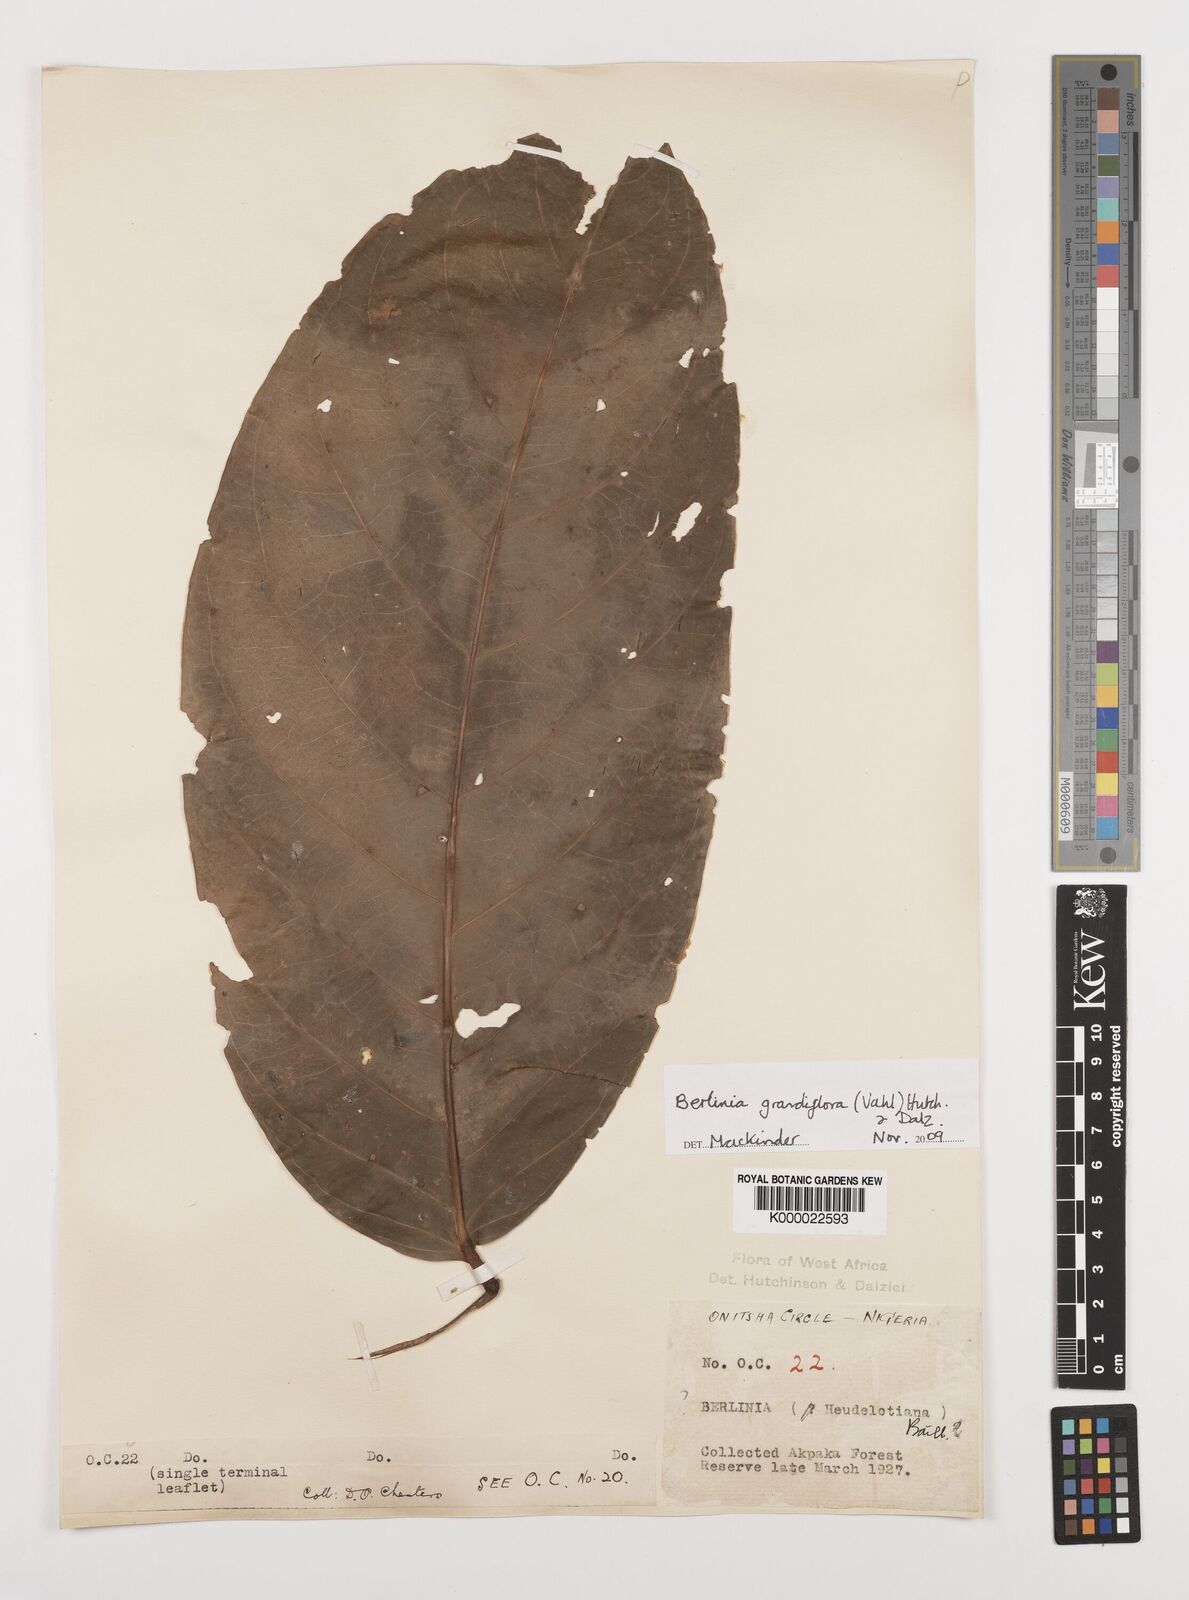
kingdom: Plantae
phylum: Tracheophyta
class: Magnoliopsida
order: Fabales
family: Fabaceae
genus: Berlinia
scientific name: Berlinia grandiflora
